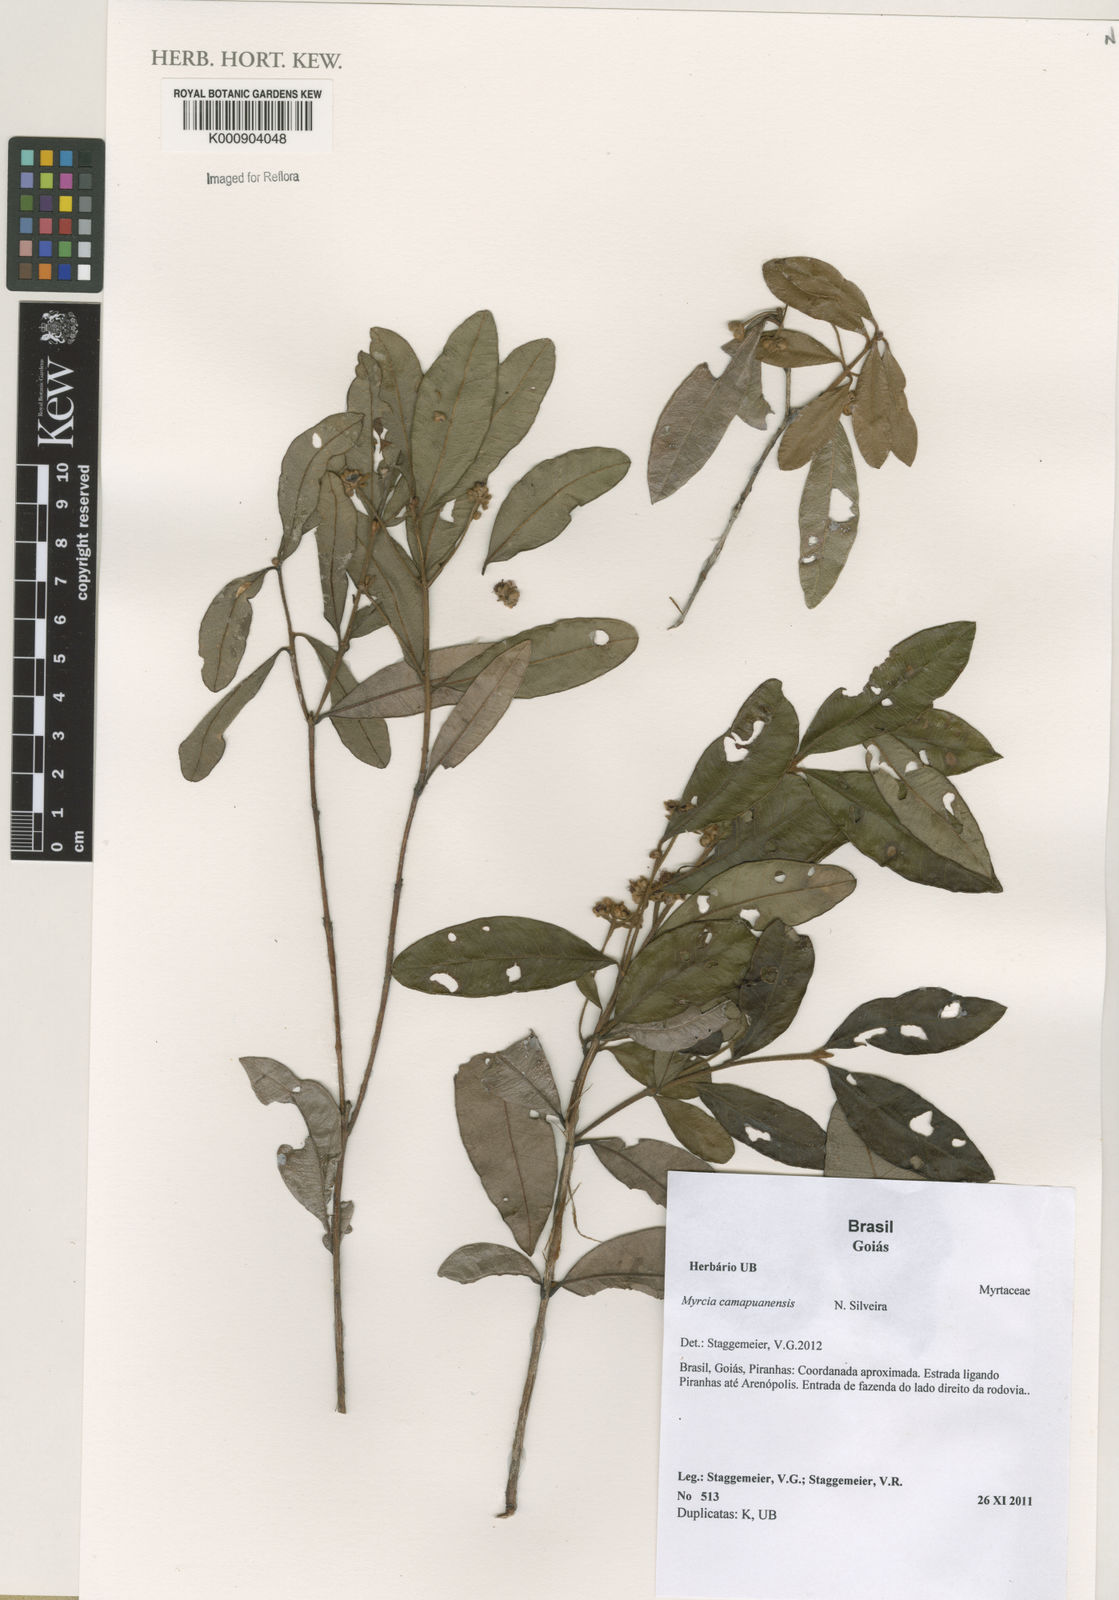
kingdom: Plantae
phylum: Tracheophyta
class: Magnoliopsida
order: Myrtales
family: Myrtaceae
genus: Myrcia
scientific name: Myrcia camapuanensis
